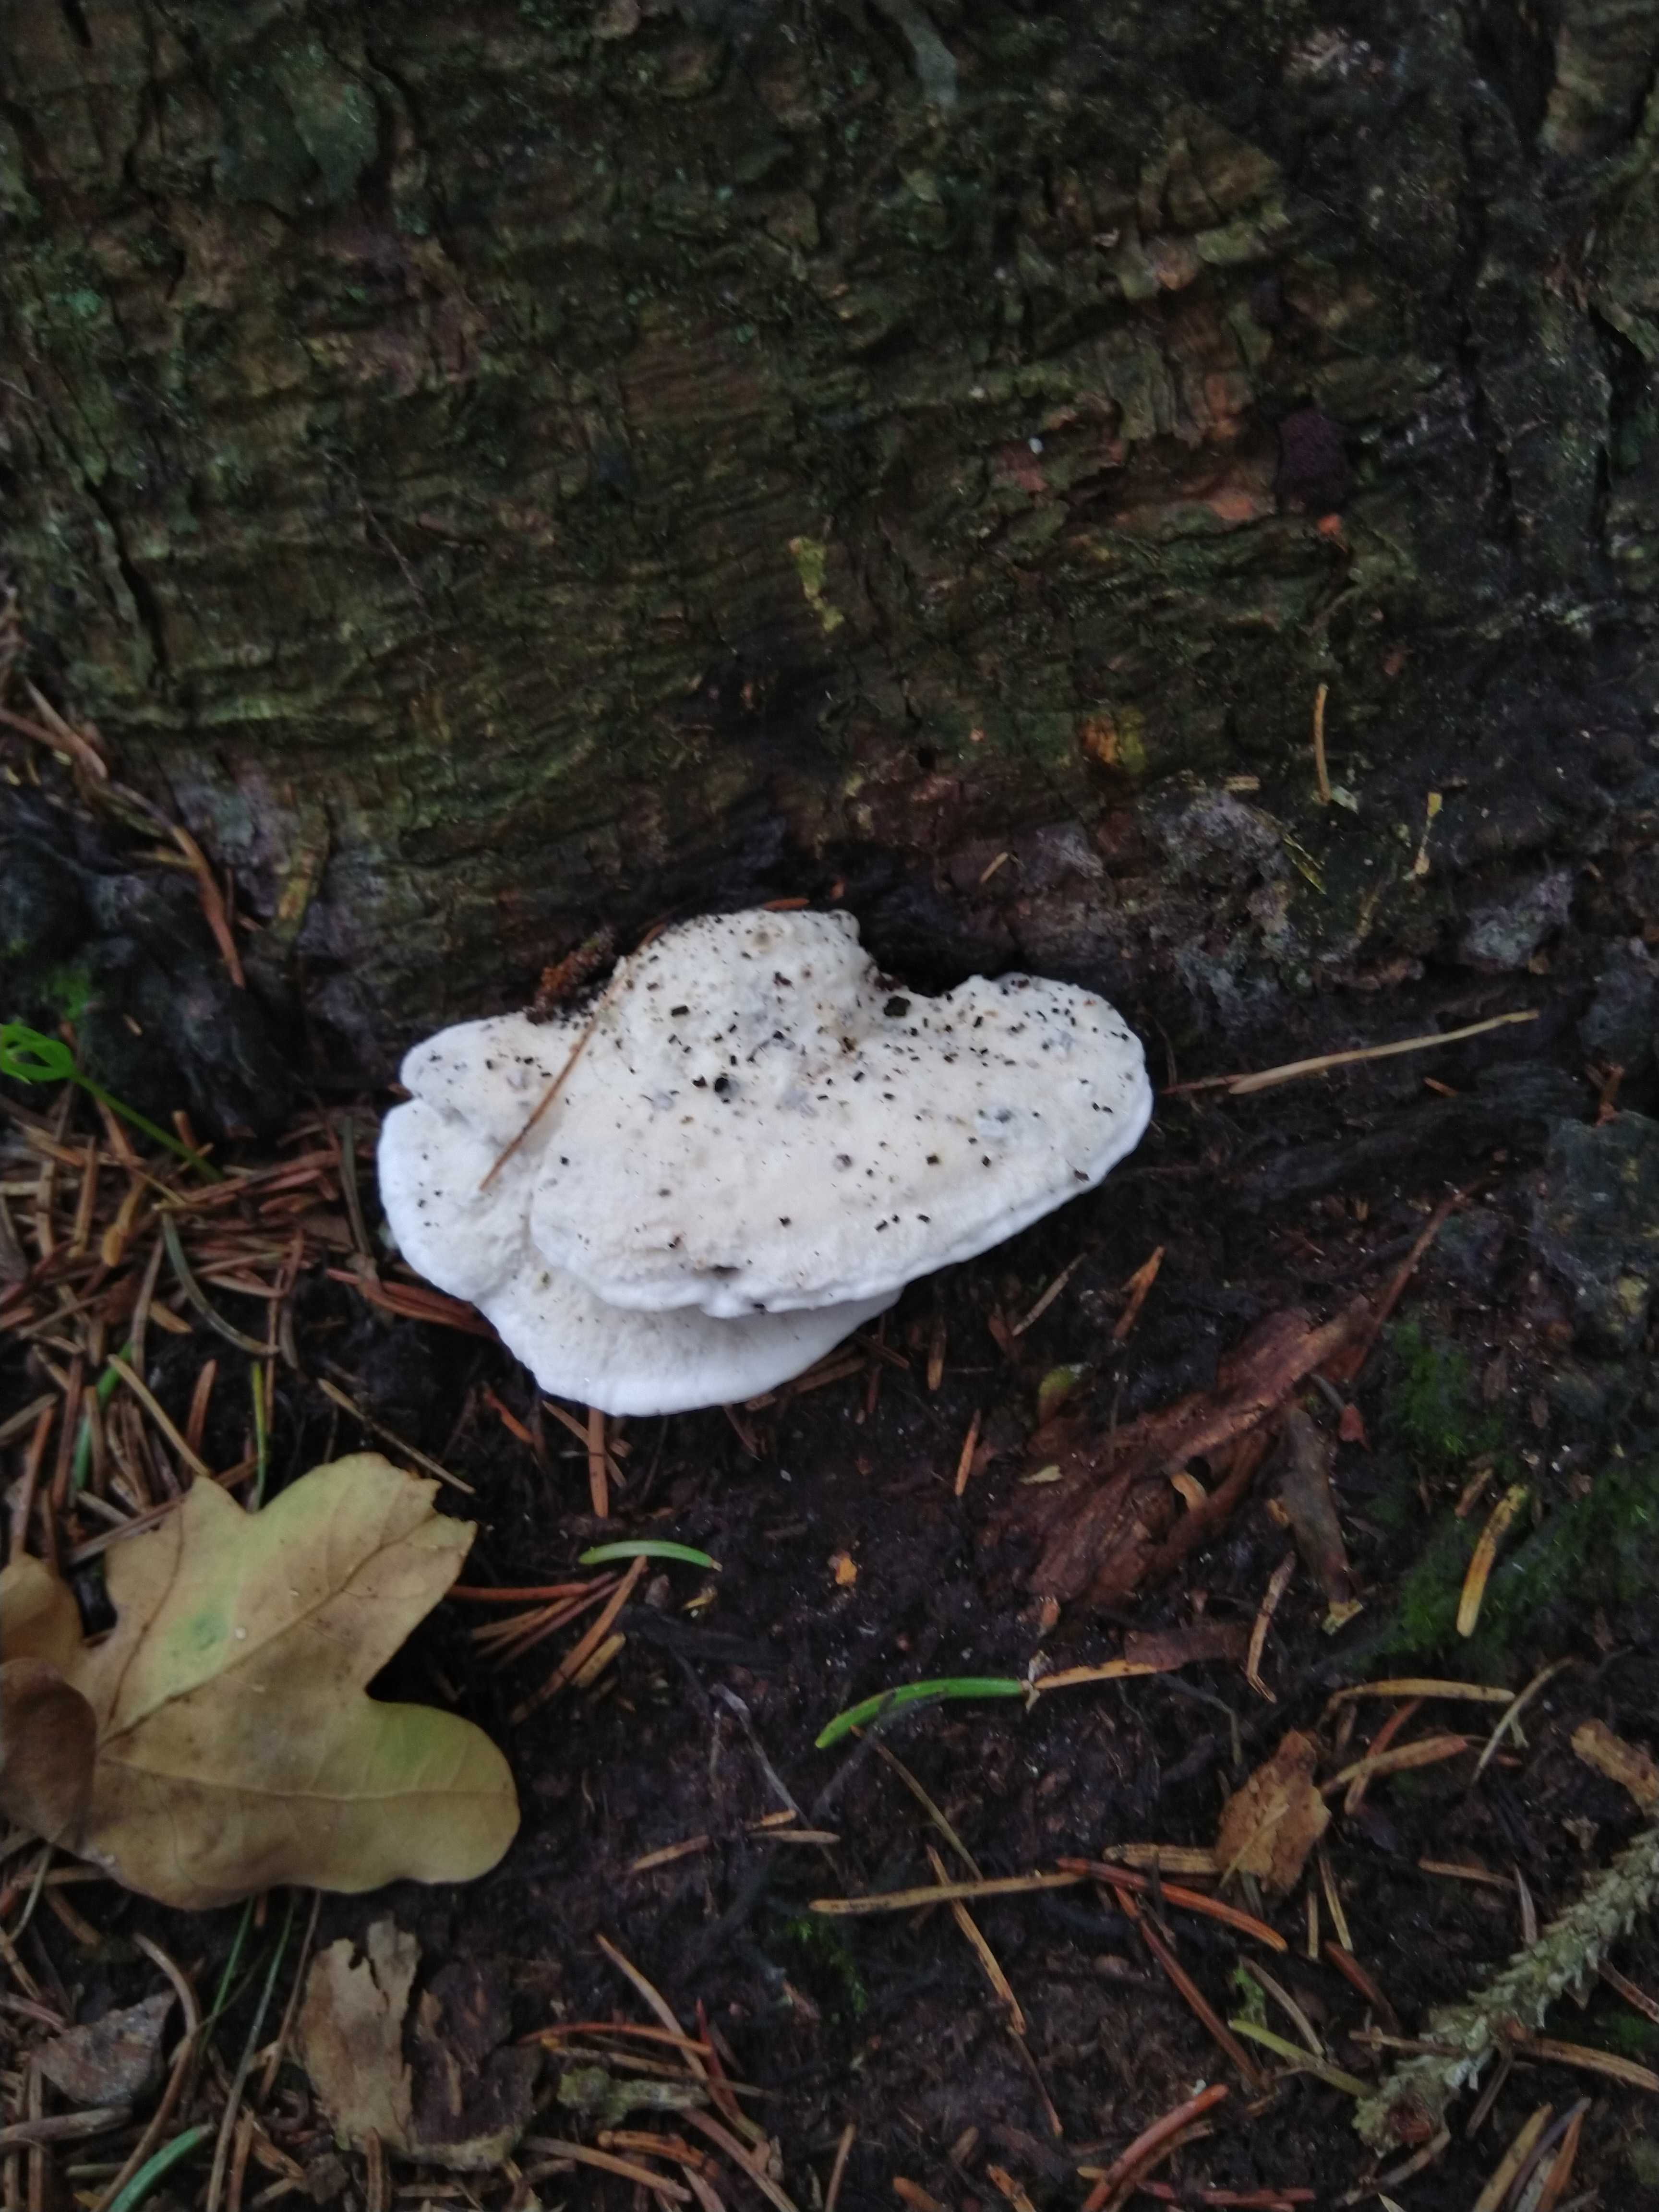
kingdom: Fungi
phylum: Basidiomycota
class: Agaricomycetes
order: Polyporales
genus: Amaropostia
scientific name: Amaropostia stiptica
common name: bitter kødporesvamp
